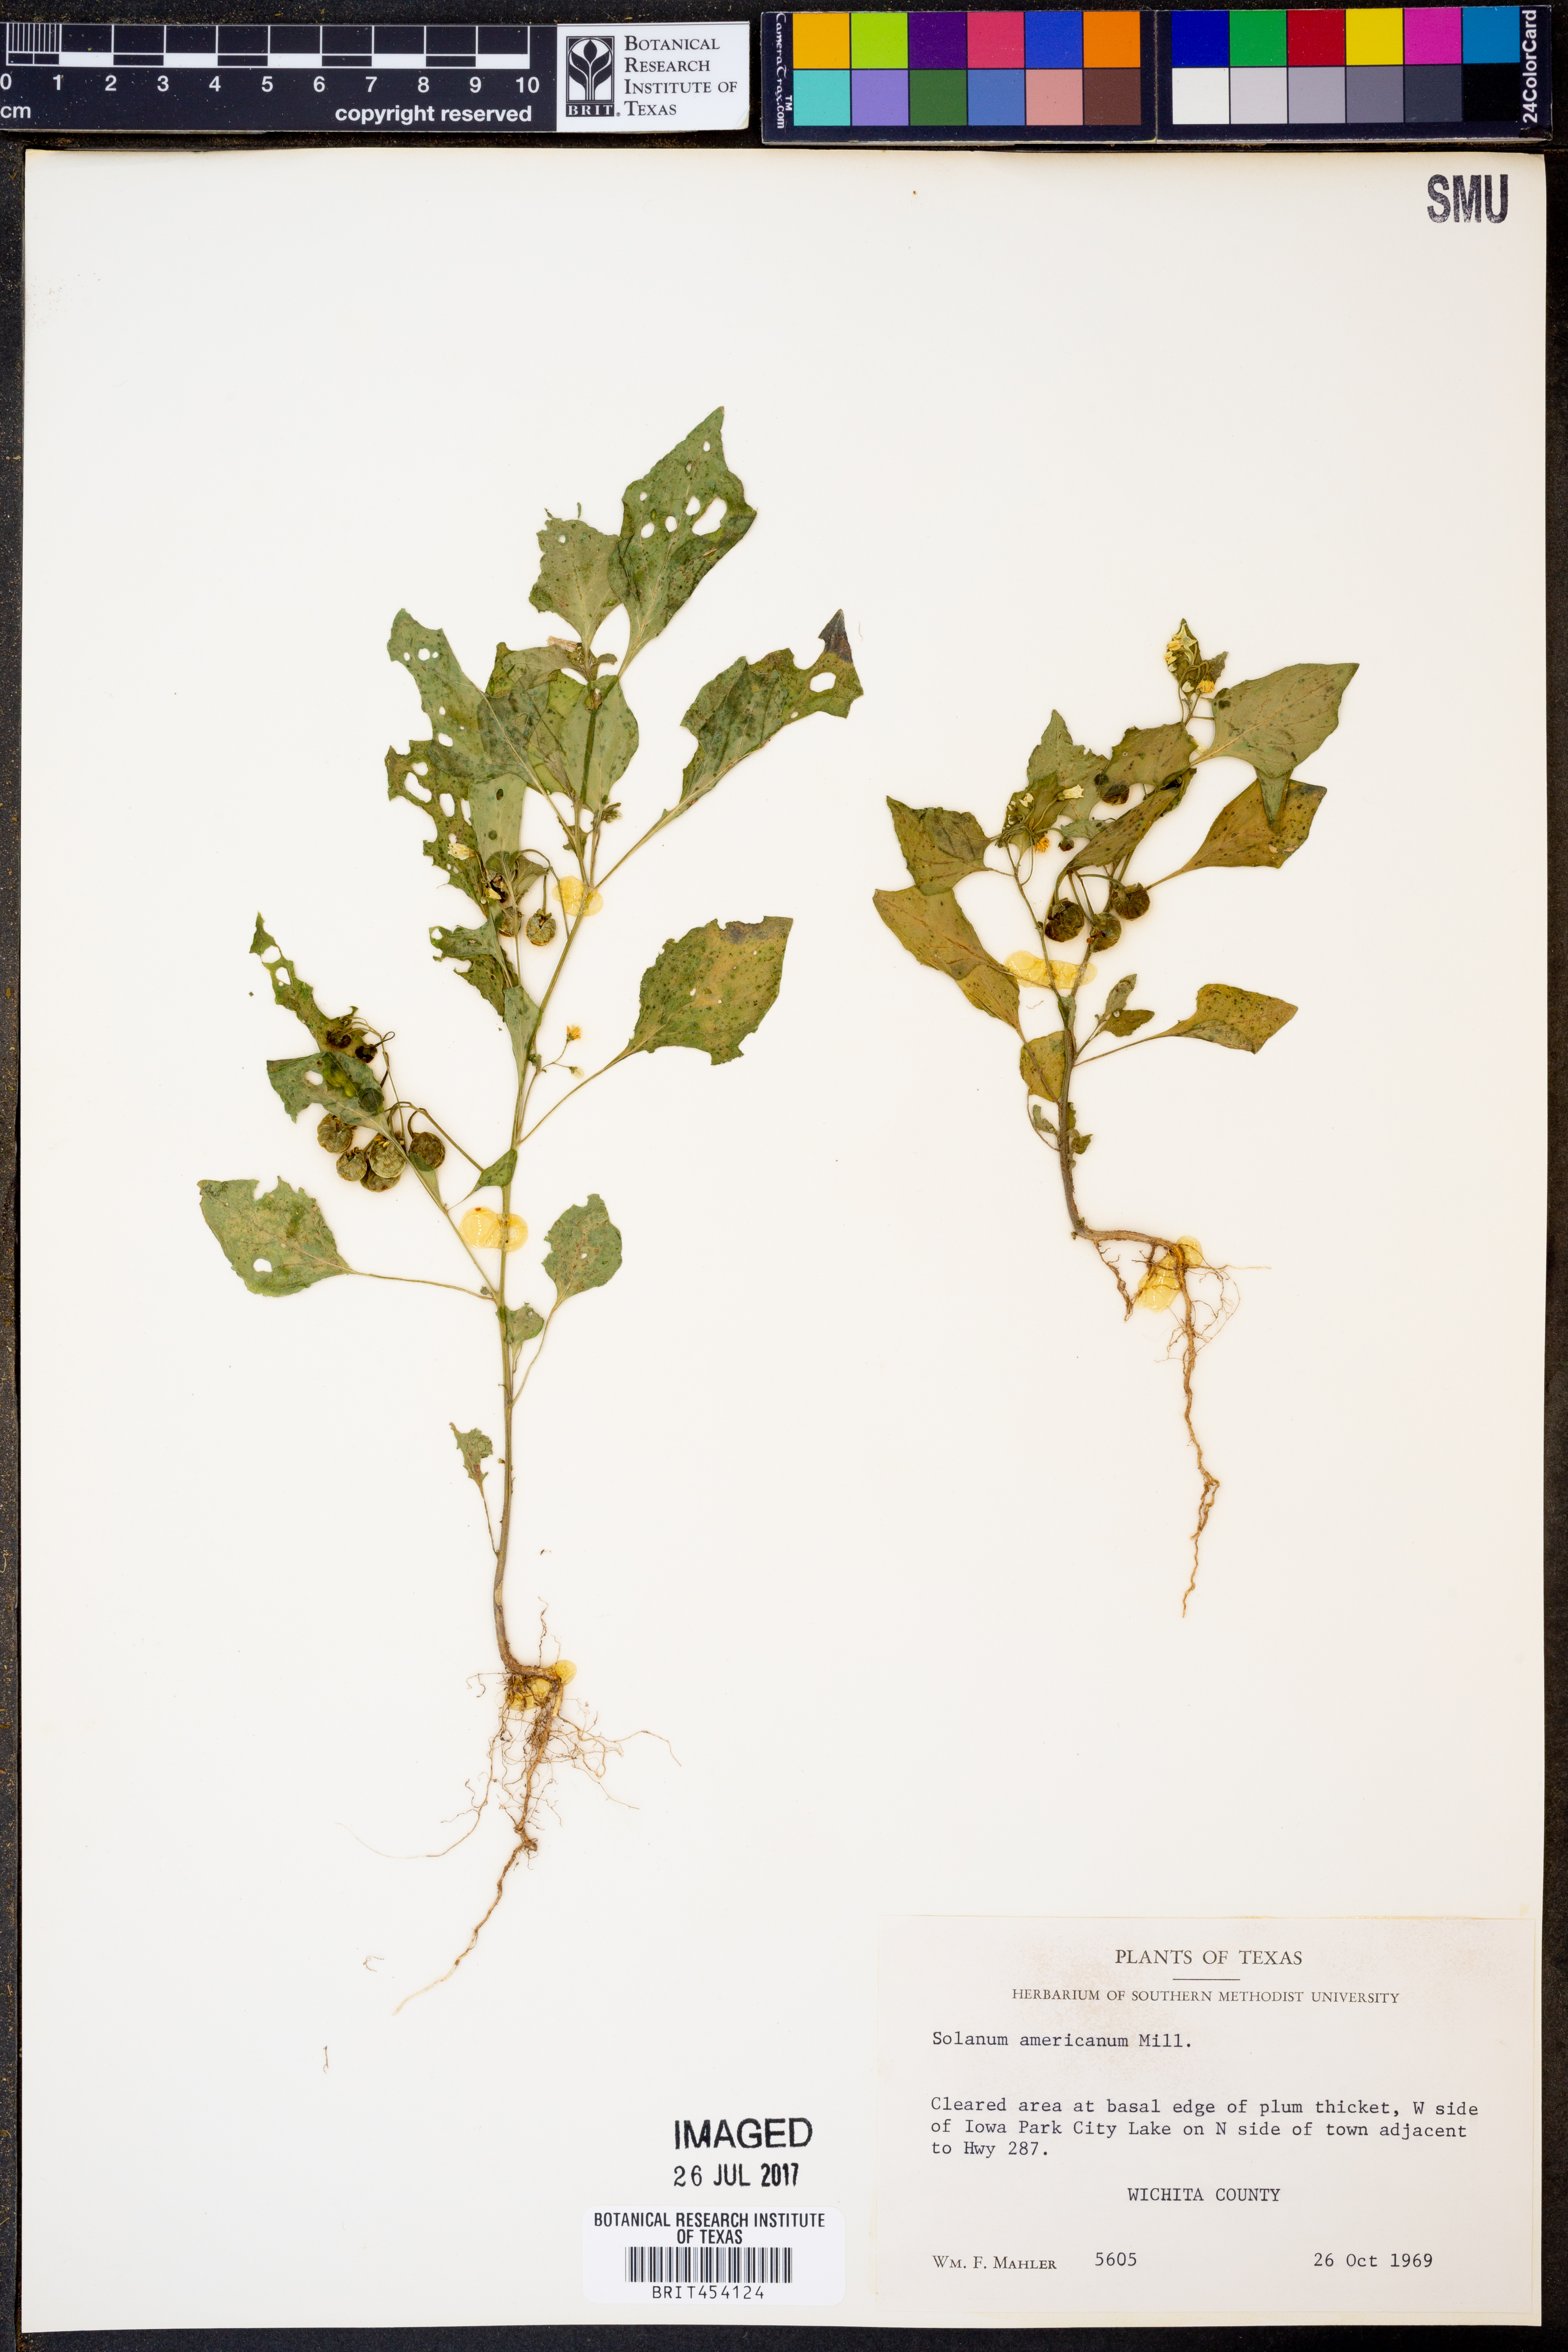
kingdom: Plantae
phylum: Tracheophyta
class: Magnoliopsida
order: Solanales
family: Solanaceae
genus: Solanum
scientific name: Solanum americanum
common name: American black nightshade
